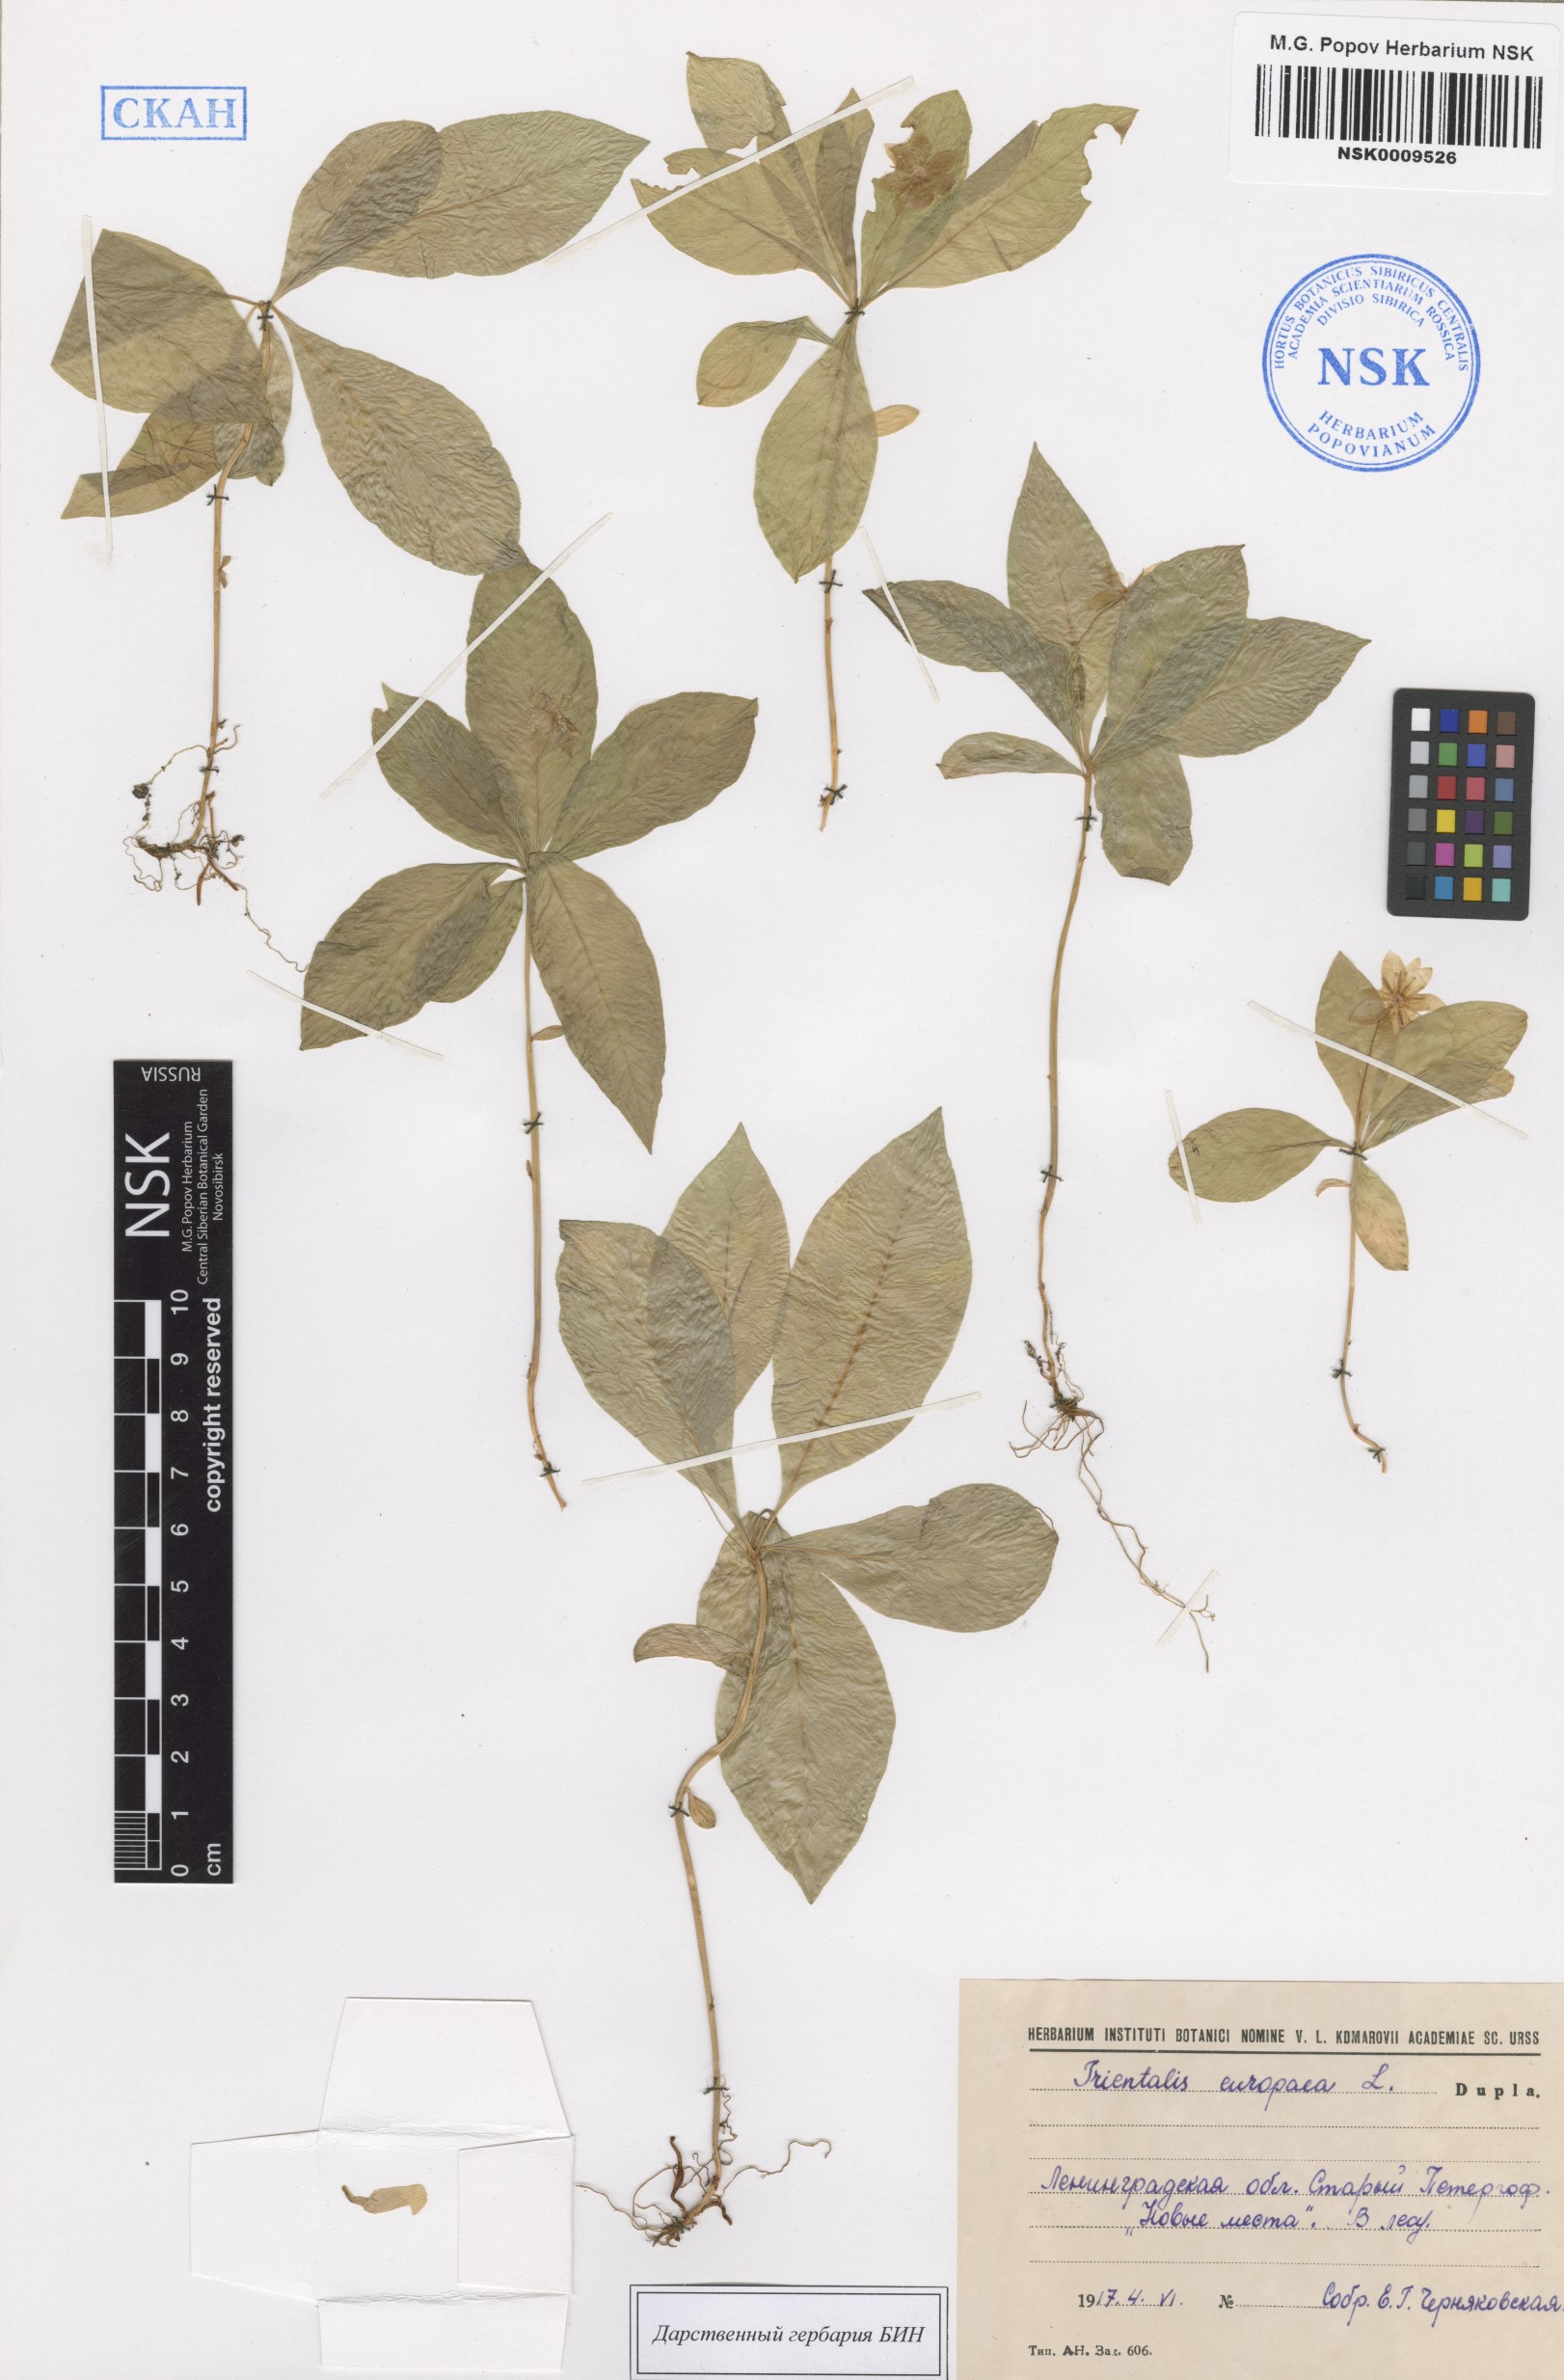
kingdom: Plantae
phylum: Tracheophyta
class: Magnoliopsida
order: Ericales
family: Primulaceae
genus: Lysimachia
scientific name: Lysimachia europaea
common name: Arctic starflower
